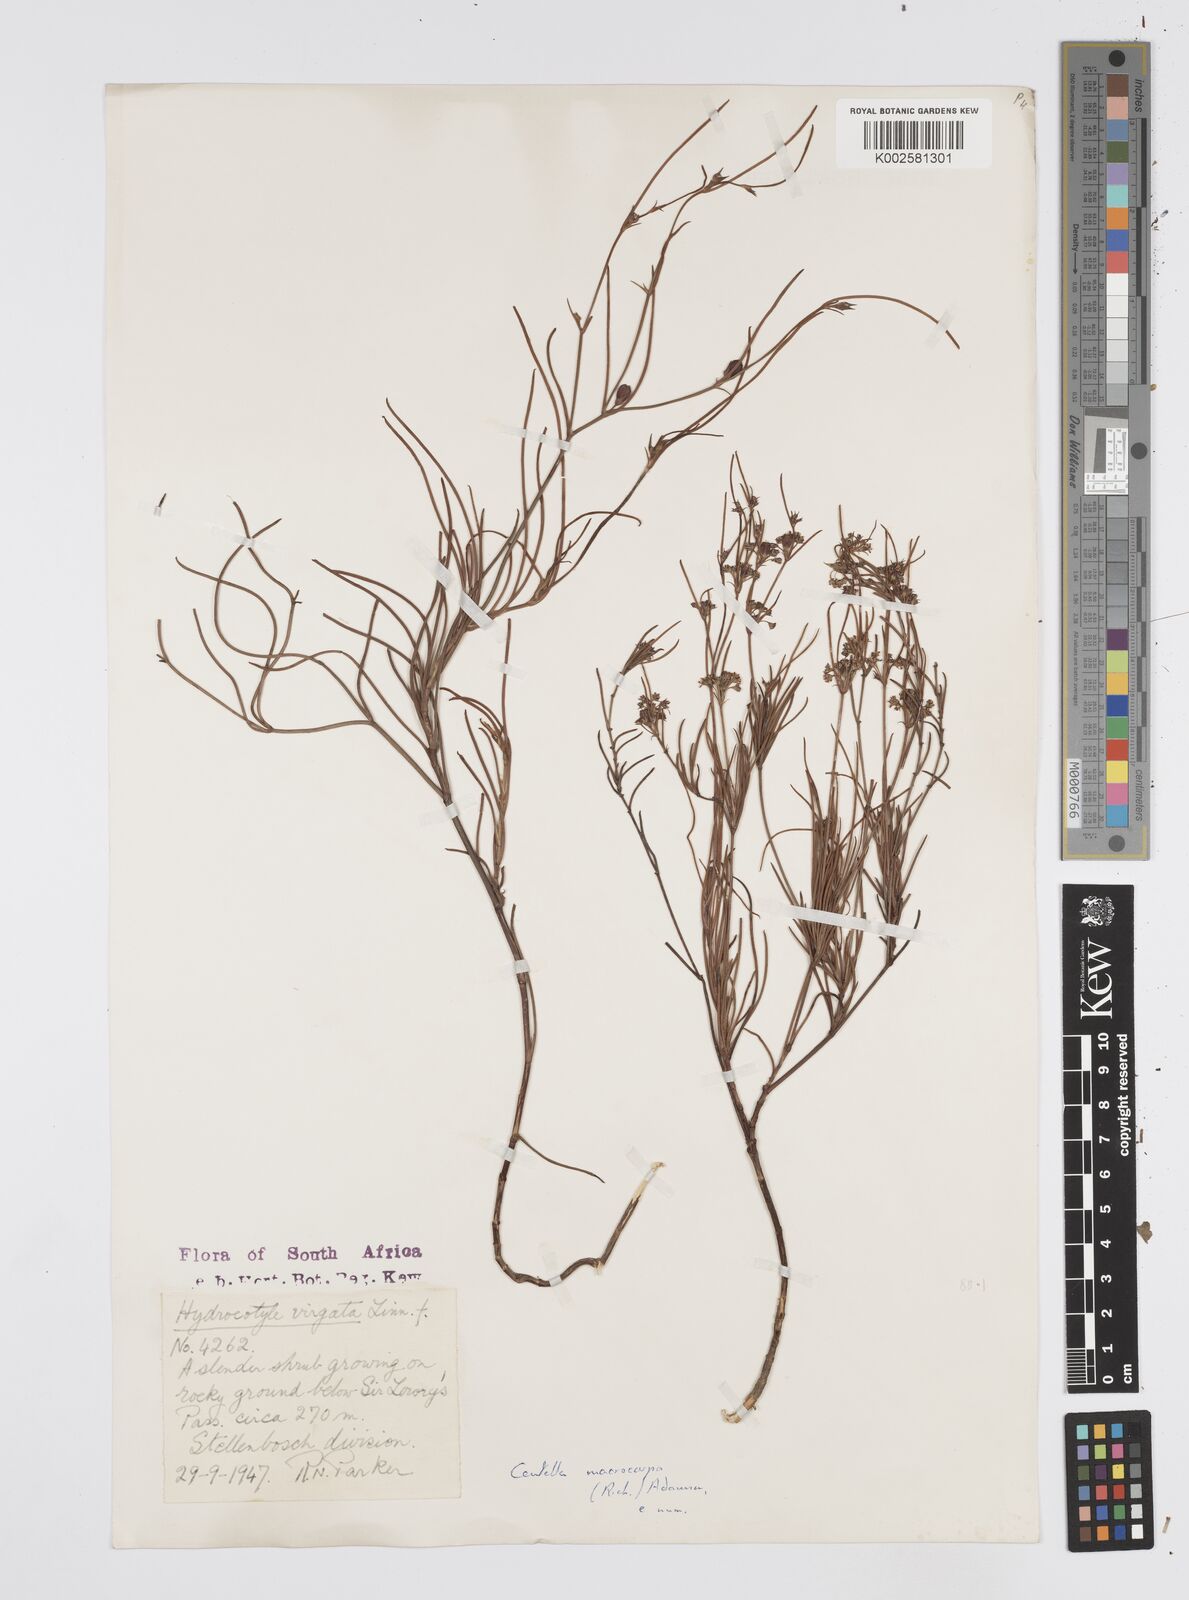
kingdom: Plantae
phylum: Tracheophyta
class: Magnoliopsida
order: Apiales
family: Apiaceae
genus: Centella
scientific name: Centella macrocarpa
